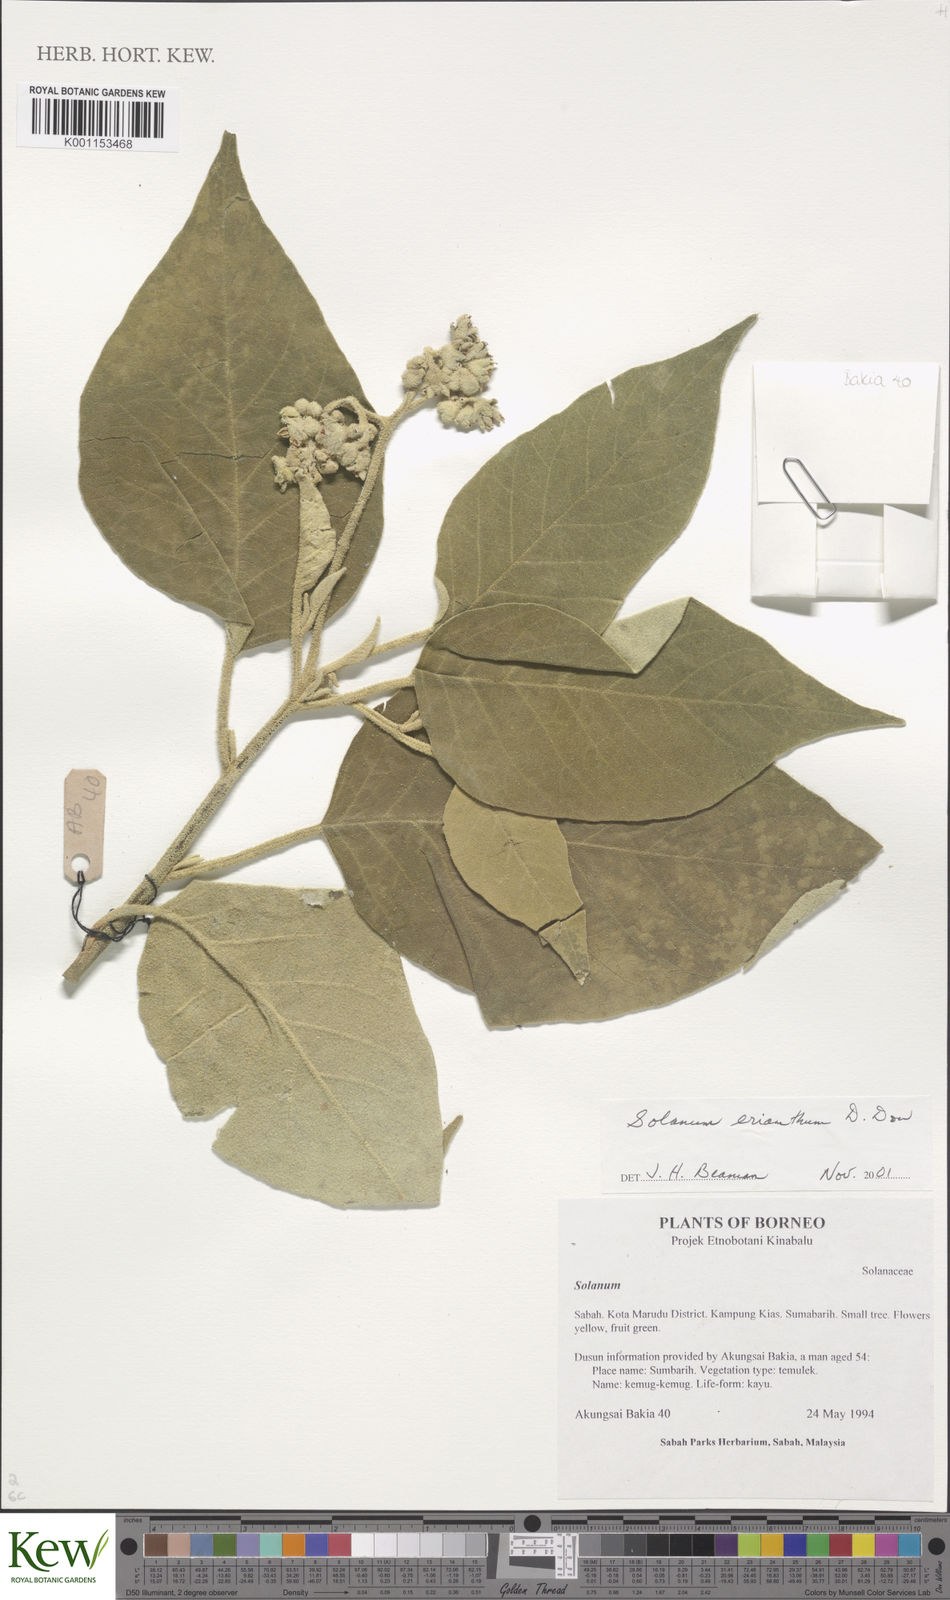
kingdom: Plantae
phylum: Tracheophyta
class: Magnoliopsida
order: Solanales
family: Solanaceae
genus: Solanum
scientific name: Solanum erianthum
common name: Tobacco-tree
